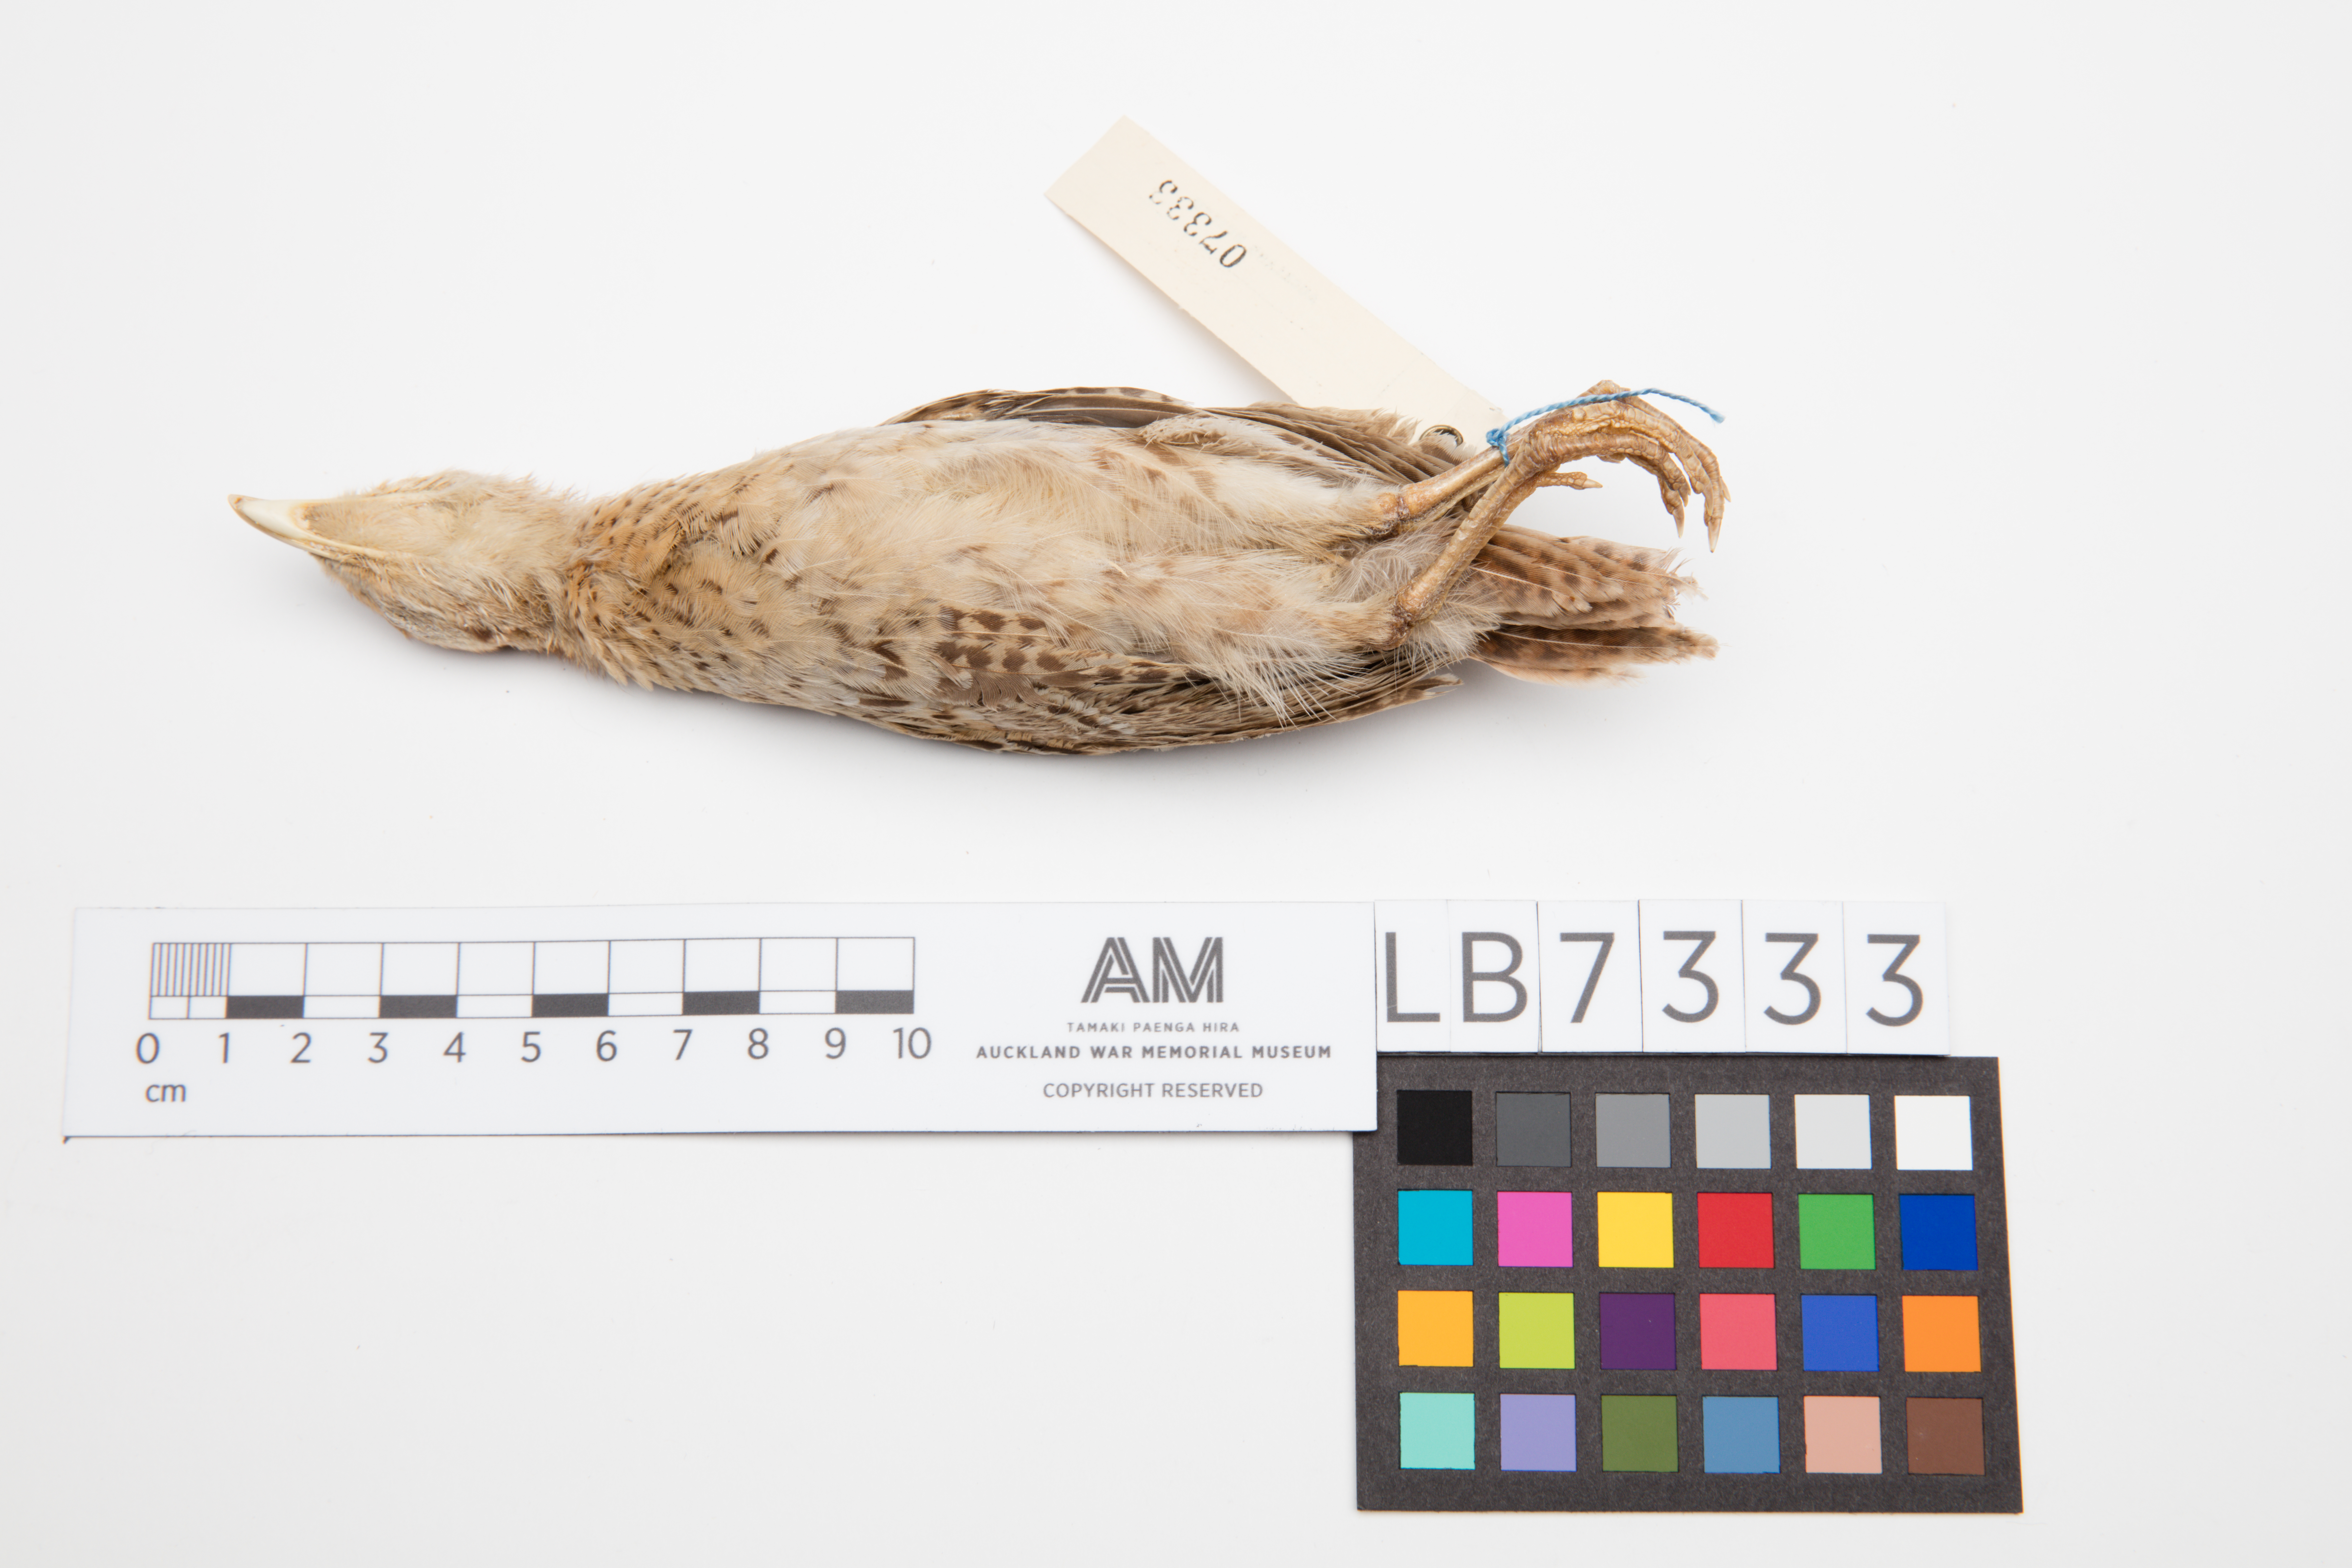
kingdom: Animalia
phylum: Chordata
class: Aves
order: Galliformes
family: Phasianidae
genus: Phasianus
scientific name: Phasianus colchicus
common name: Common pheasant
